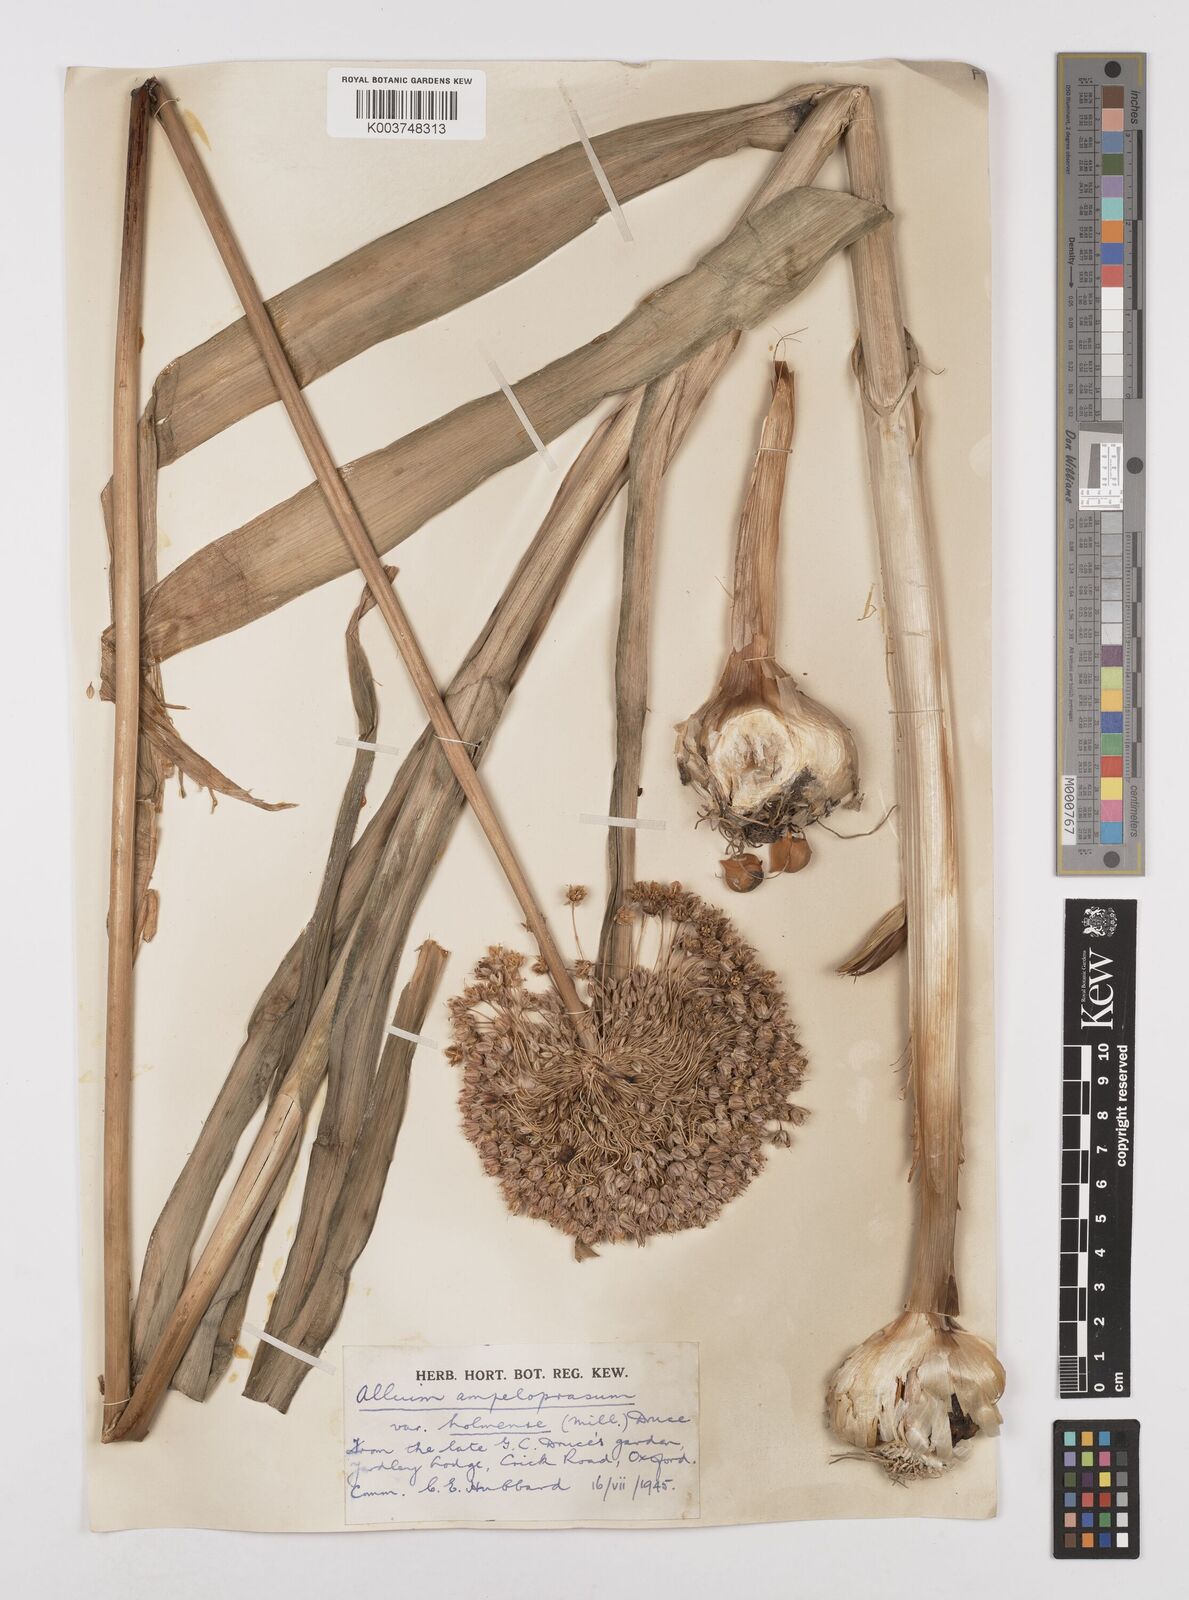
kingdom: Plantae
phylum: Tracheophyta
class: Liliopsida
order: Asparagales
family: Amaryllidaceae
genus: Allium
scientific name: Allium ampeloprasum
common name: Wild leek
